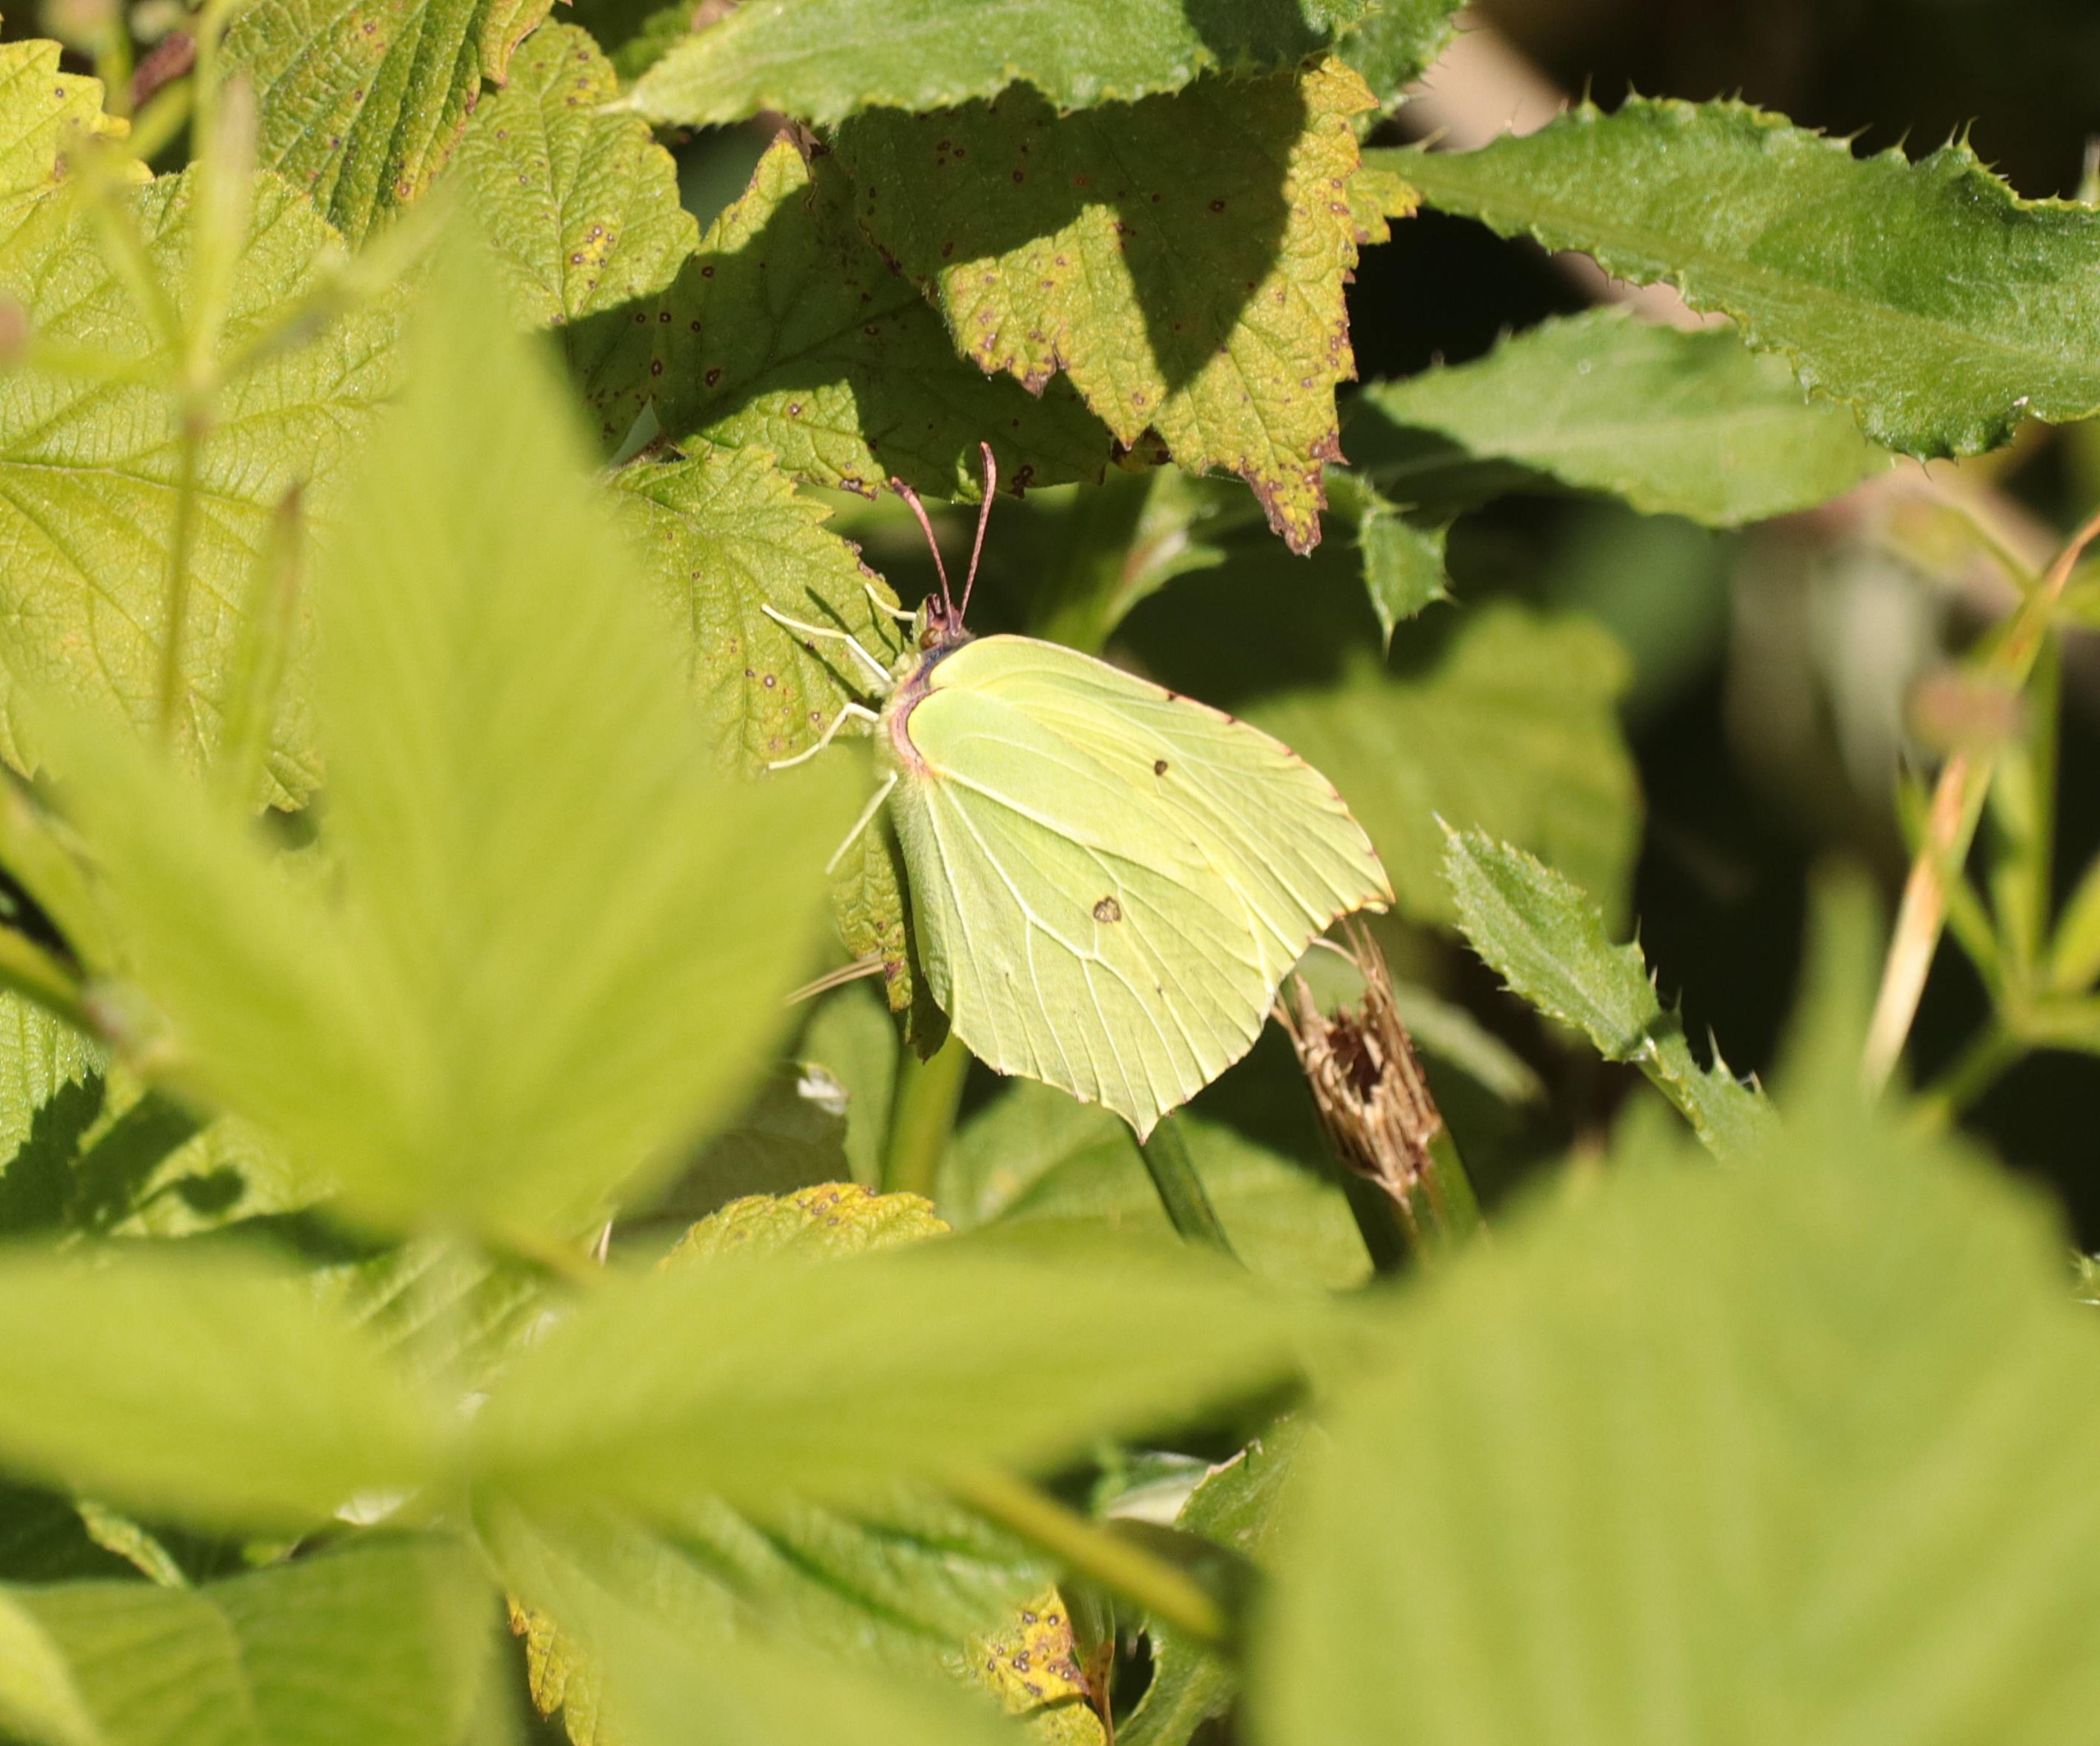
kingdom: Animalia
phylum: Arthropoda
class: Insecta
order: Lepidoptera
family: Pieridae
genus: Gonepteryx
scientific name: Gonepteryx rhamni
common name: Citronsommerfugl
